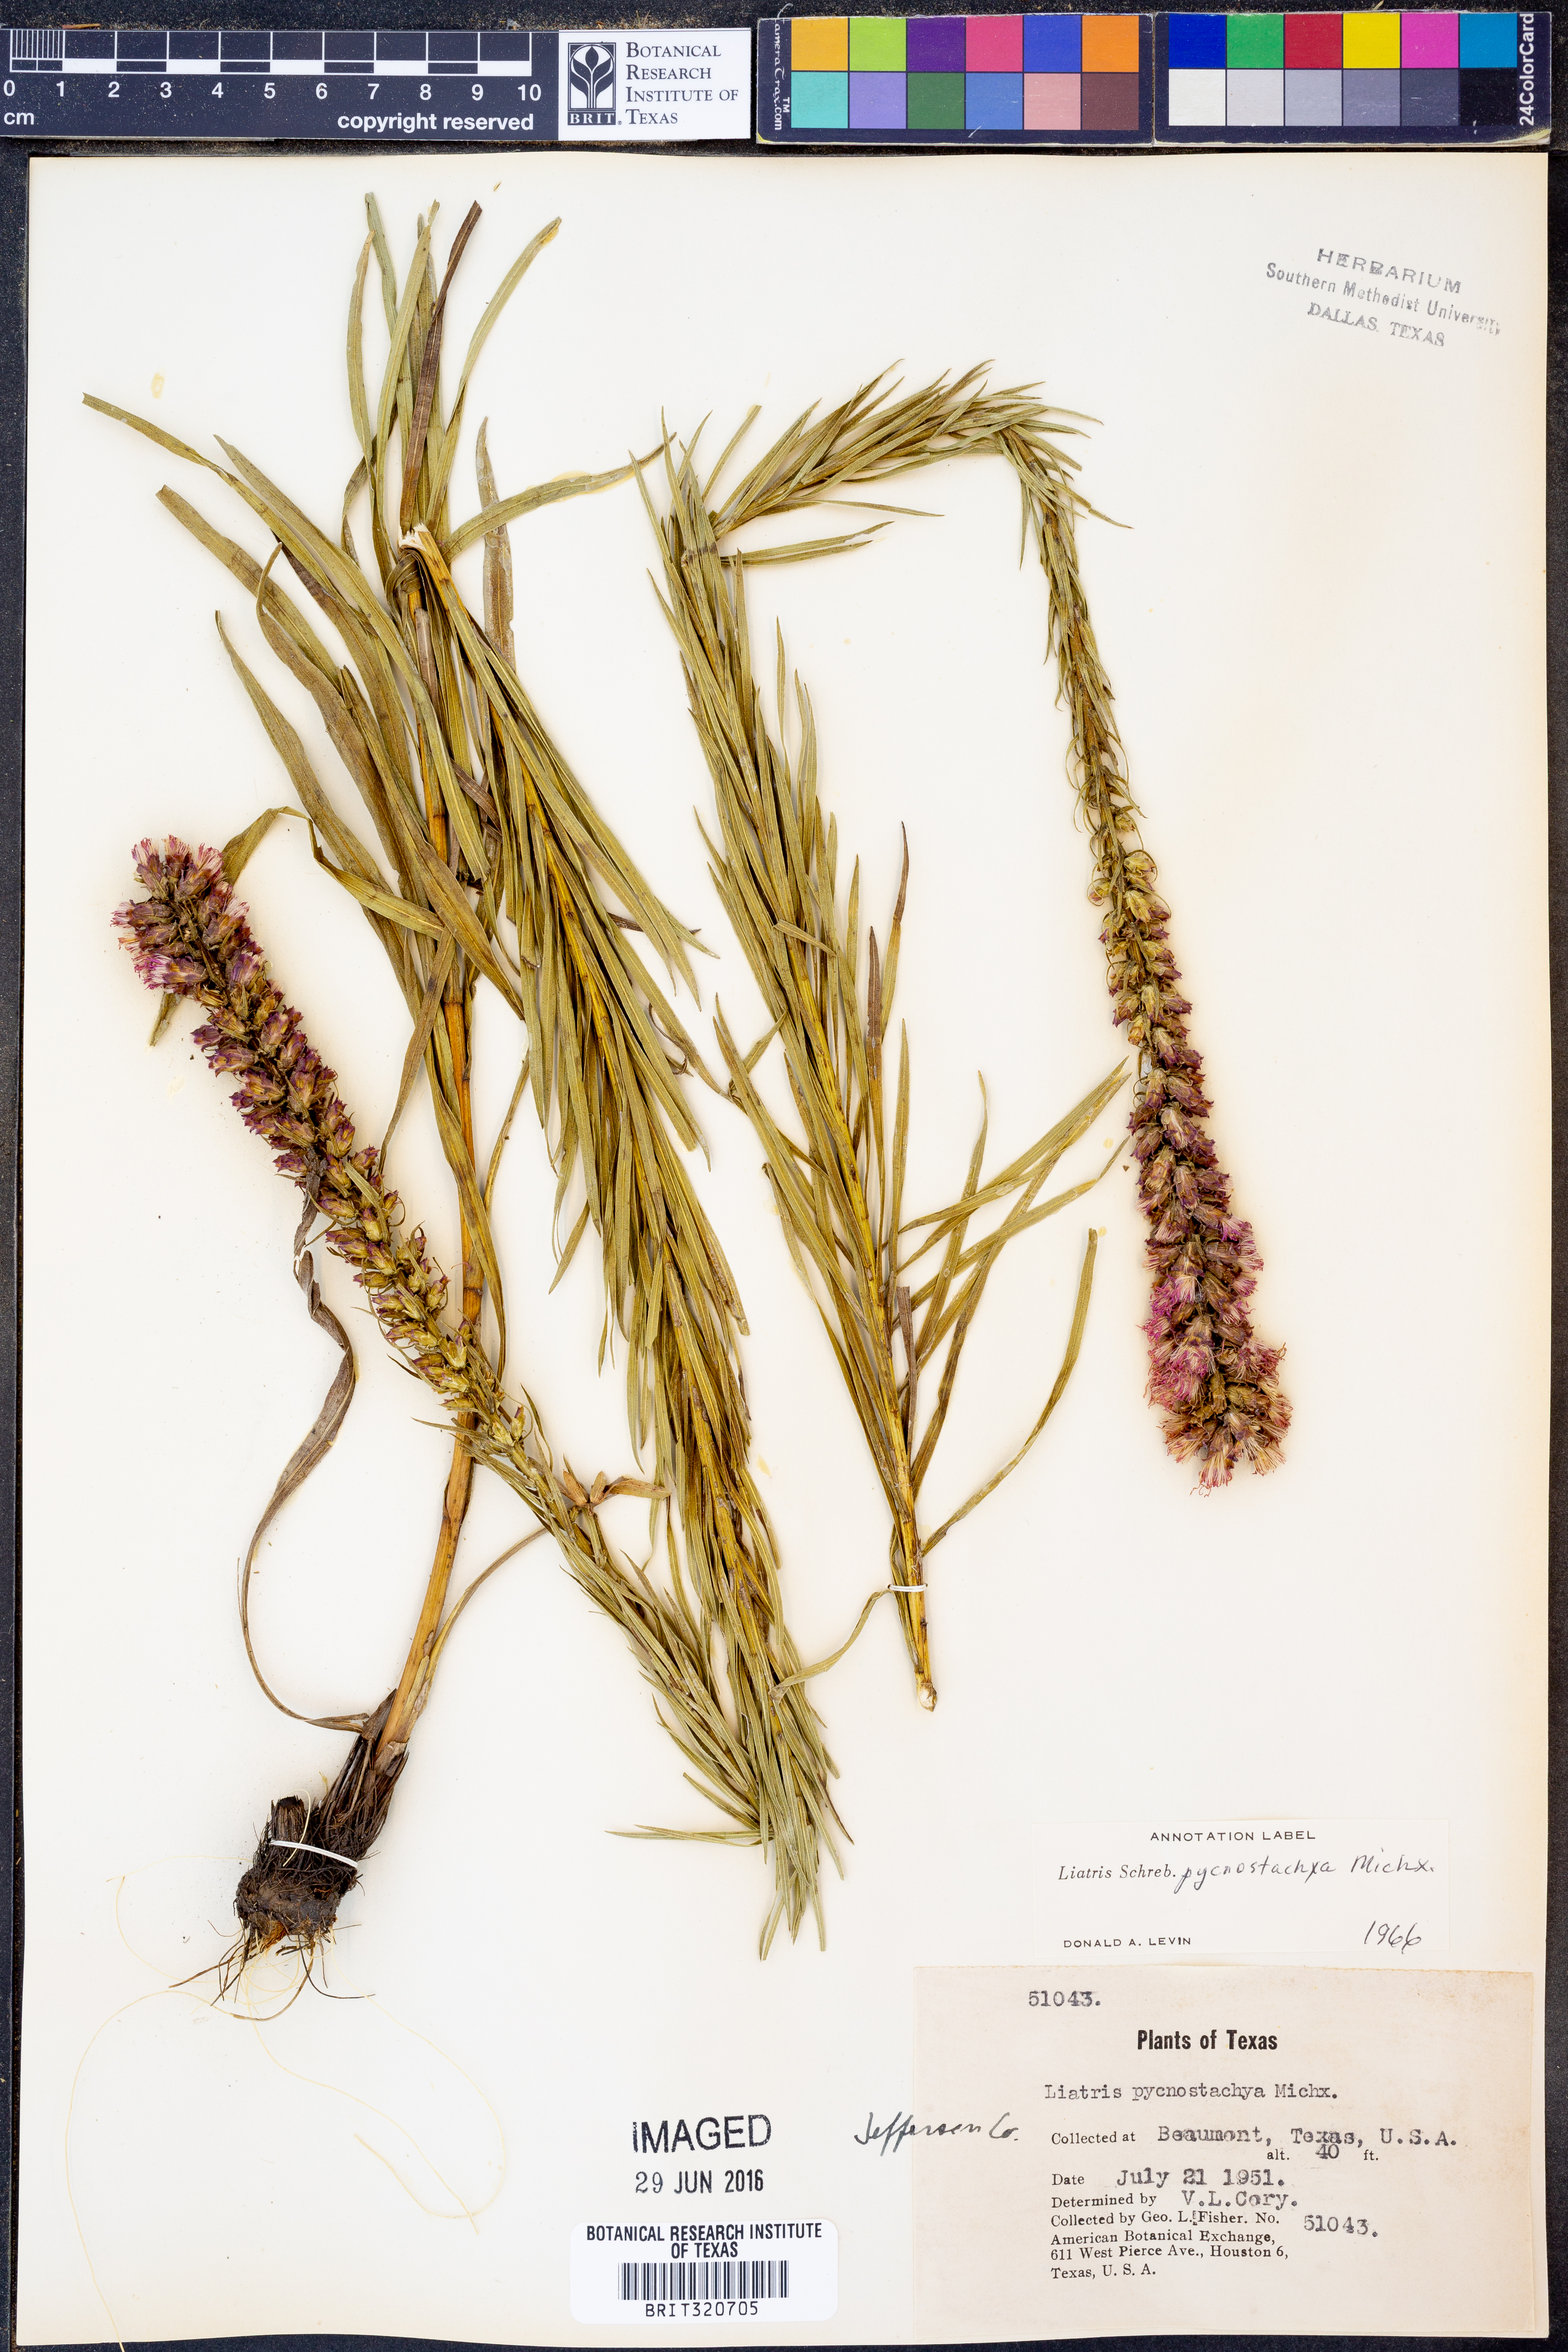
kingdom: Plantae
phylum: Tracheophyta
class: Magnoliopsida
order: Asterales
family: Asteraceae
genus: Liatris
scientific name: Liatris pycnostachya
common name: Cattail gayfeather
